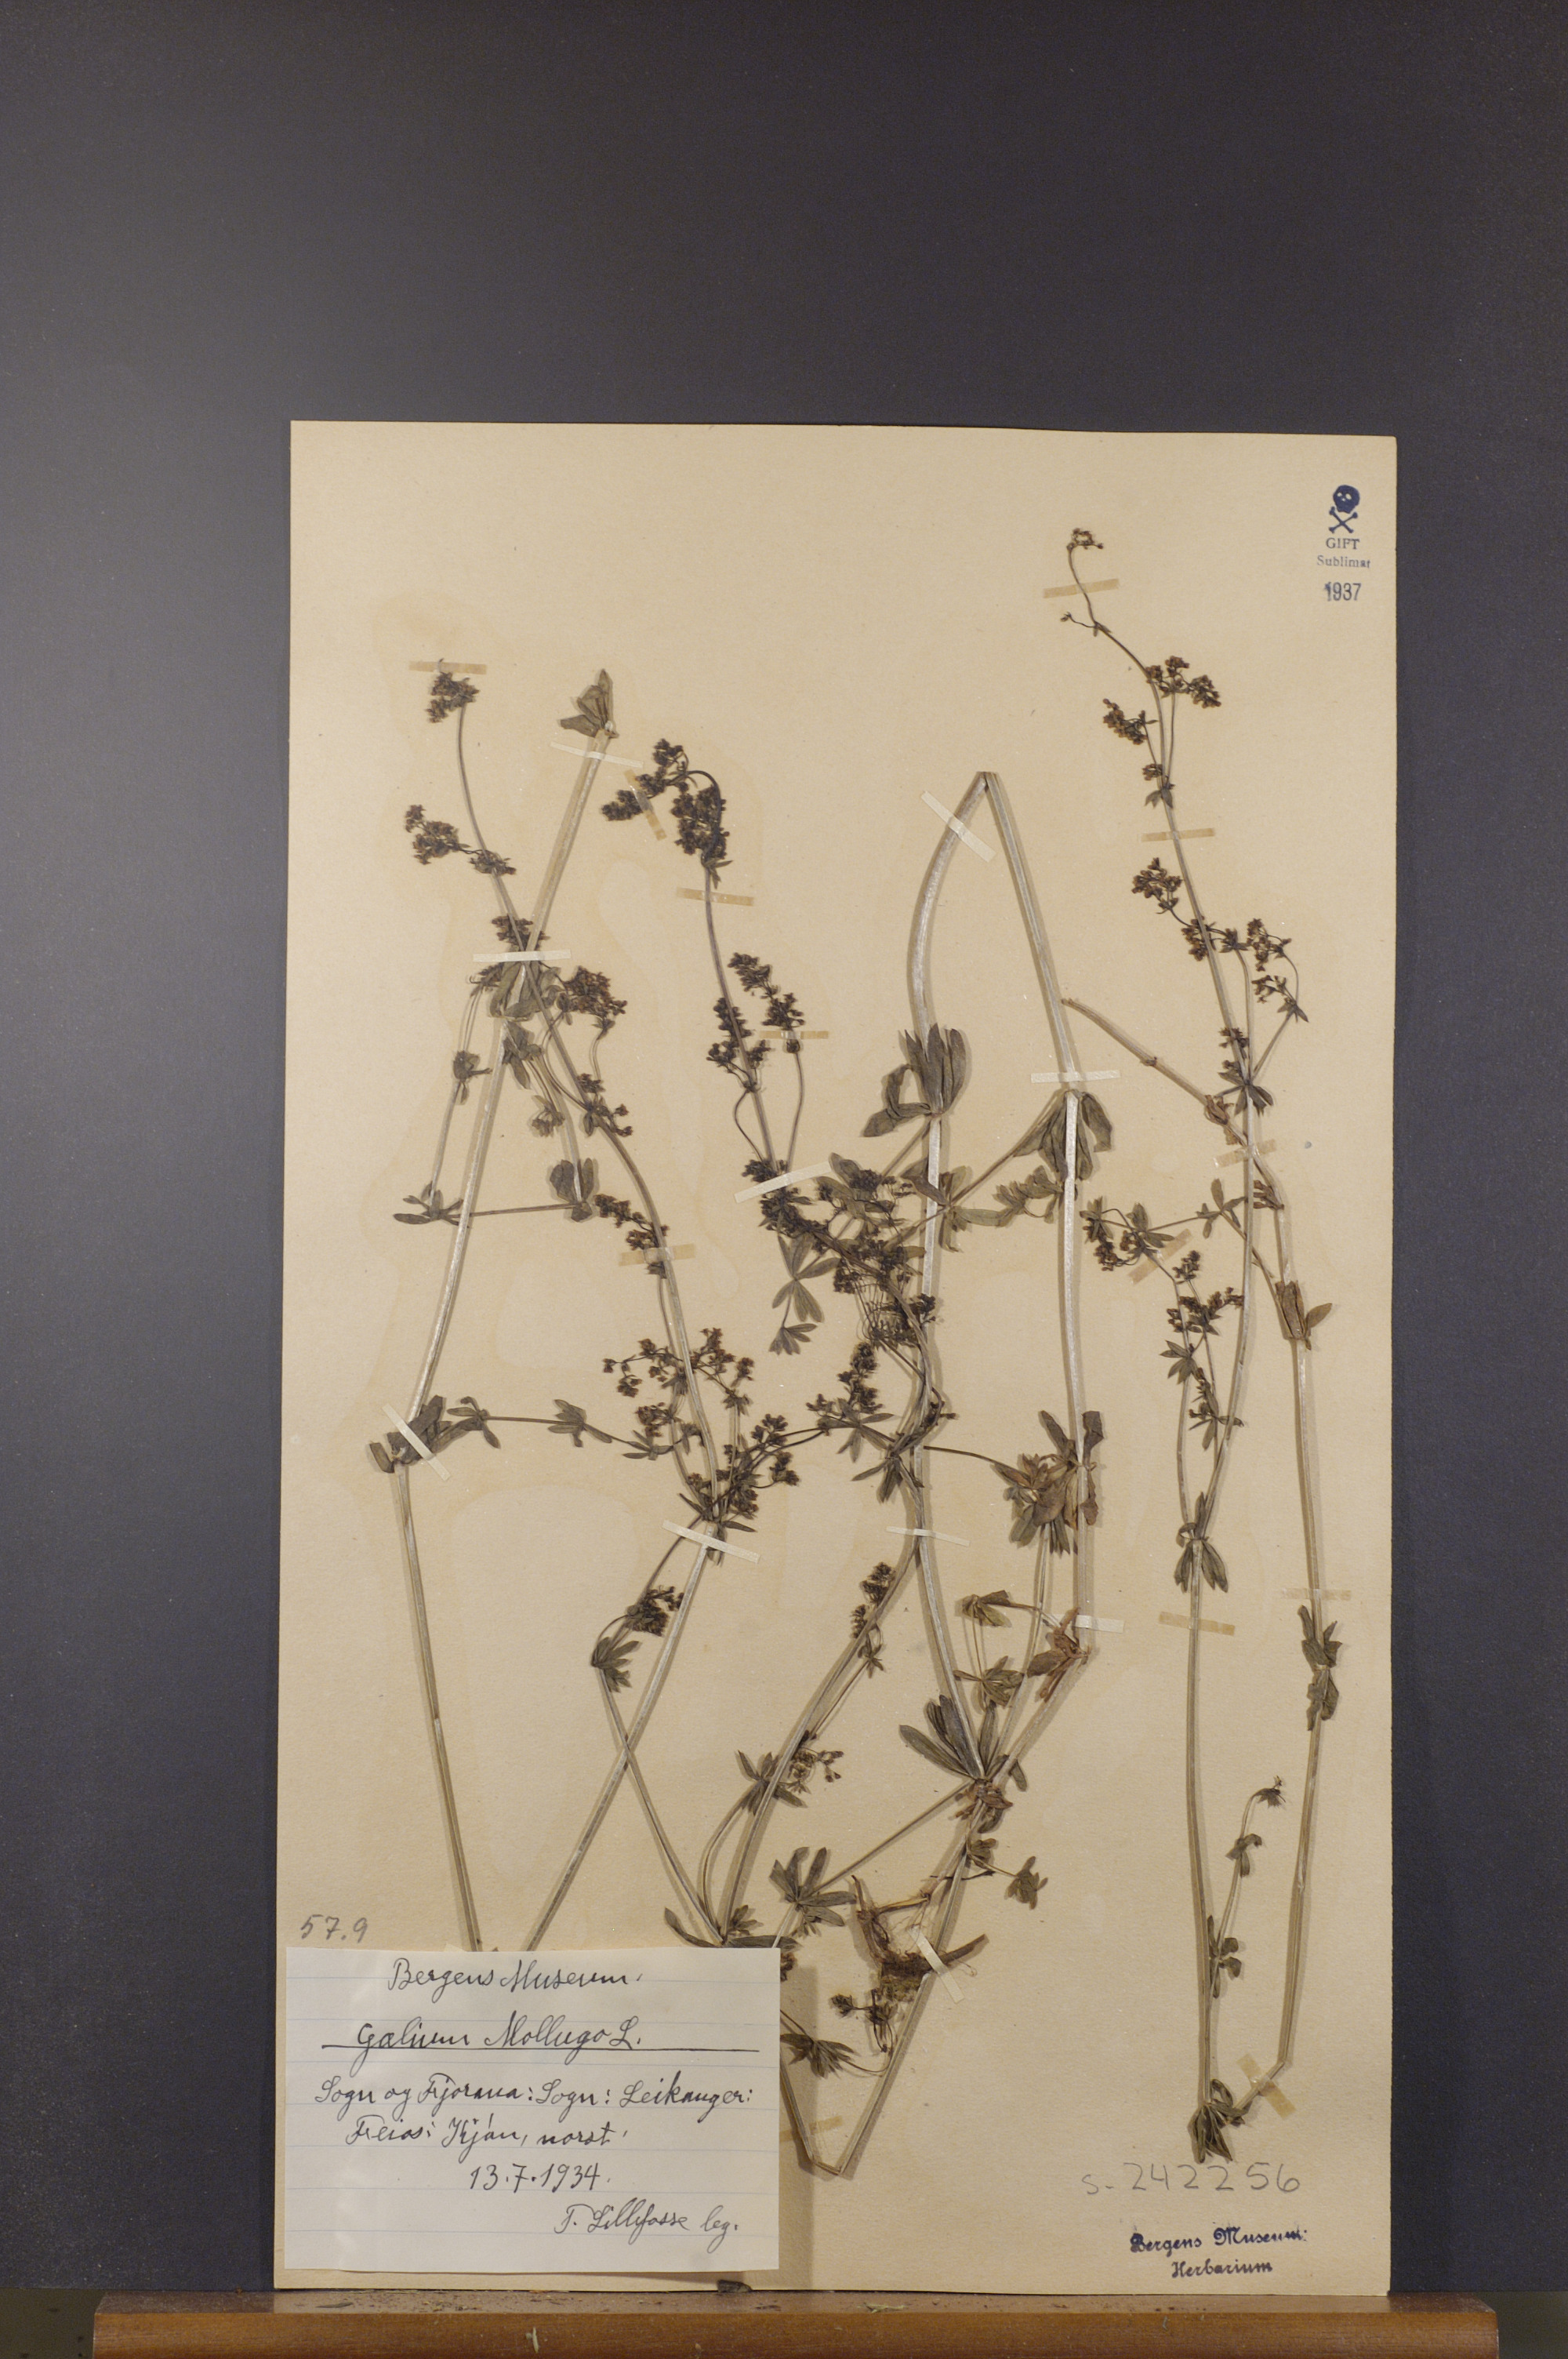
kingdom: Plantae
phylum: Tracheophyta
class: Magnoliopsida
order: Gentianales
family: Rubiaceae
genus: Galium
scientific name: Galium mollugo
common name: Hedge bedstraw
